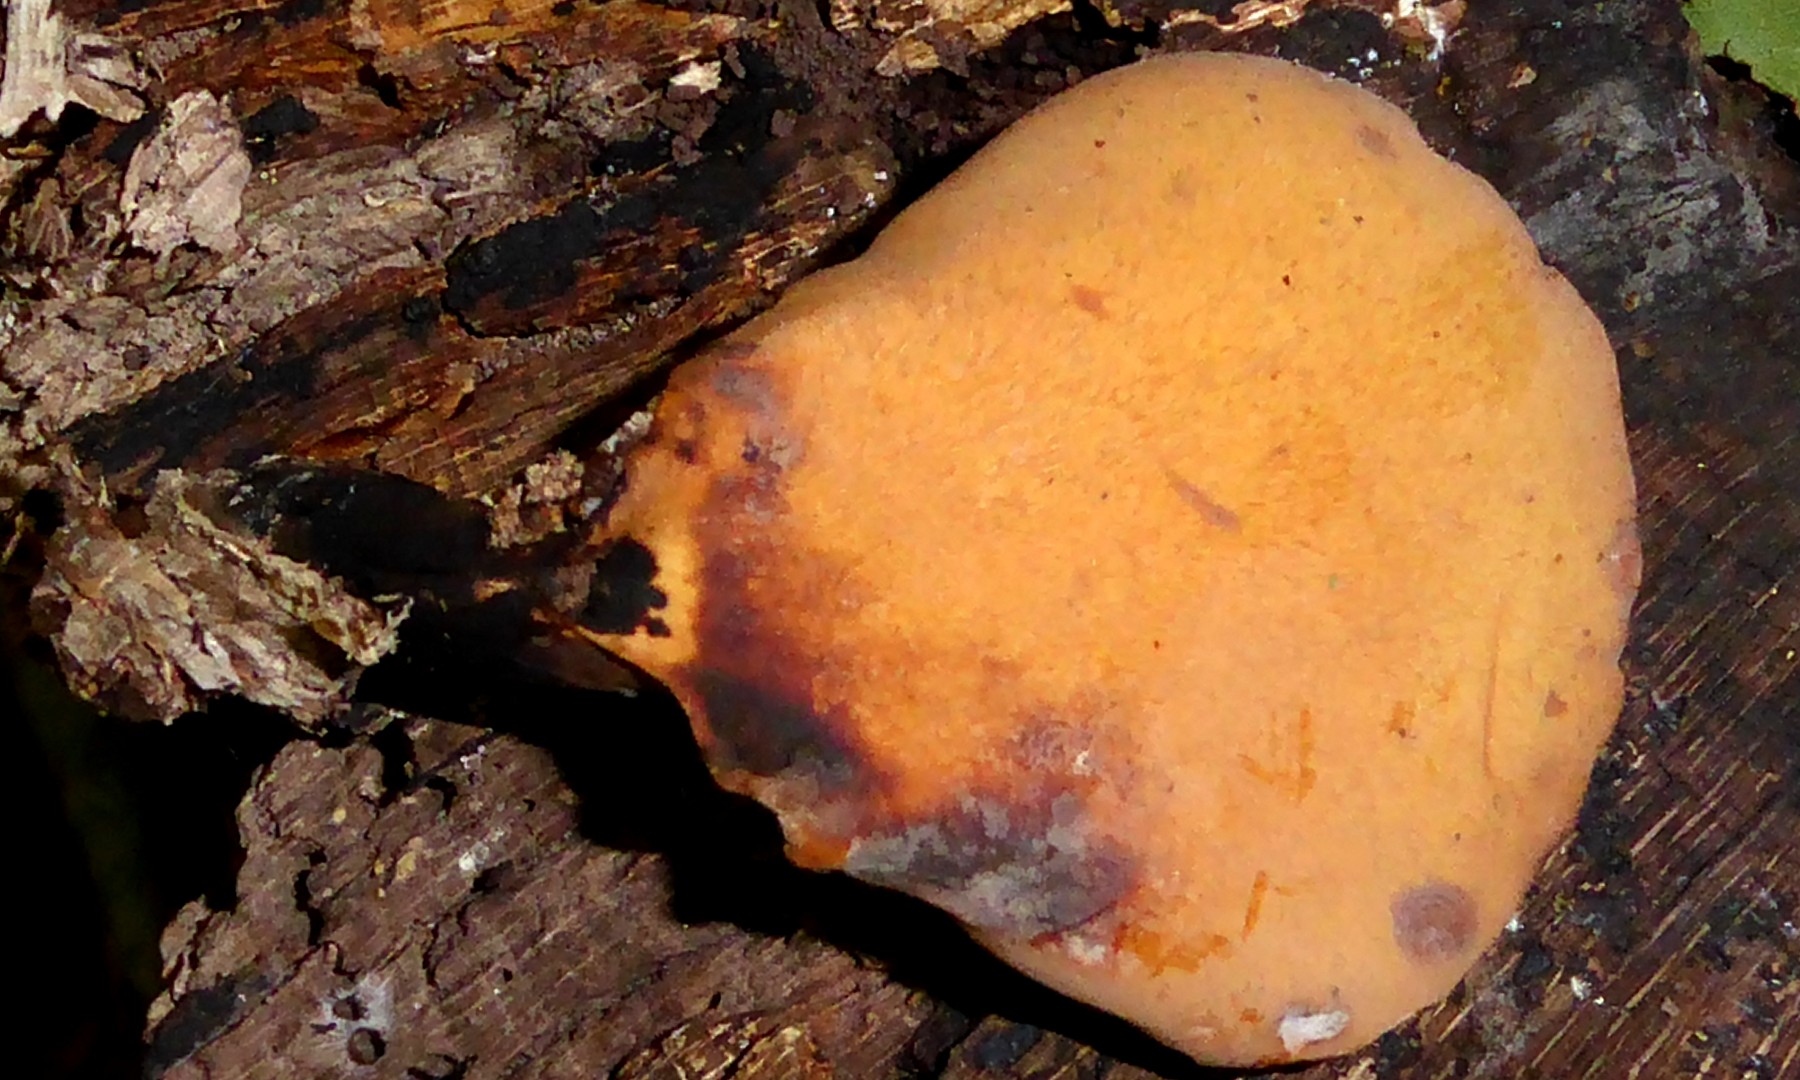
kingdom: Fungi
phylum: Basidiomycota
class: Agaricomycetes
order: Polyporales
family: Polyporaceae
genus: Cerioporus
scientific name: Cerioporus varius
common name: foranderlig stilkporesvamp
